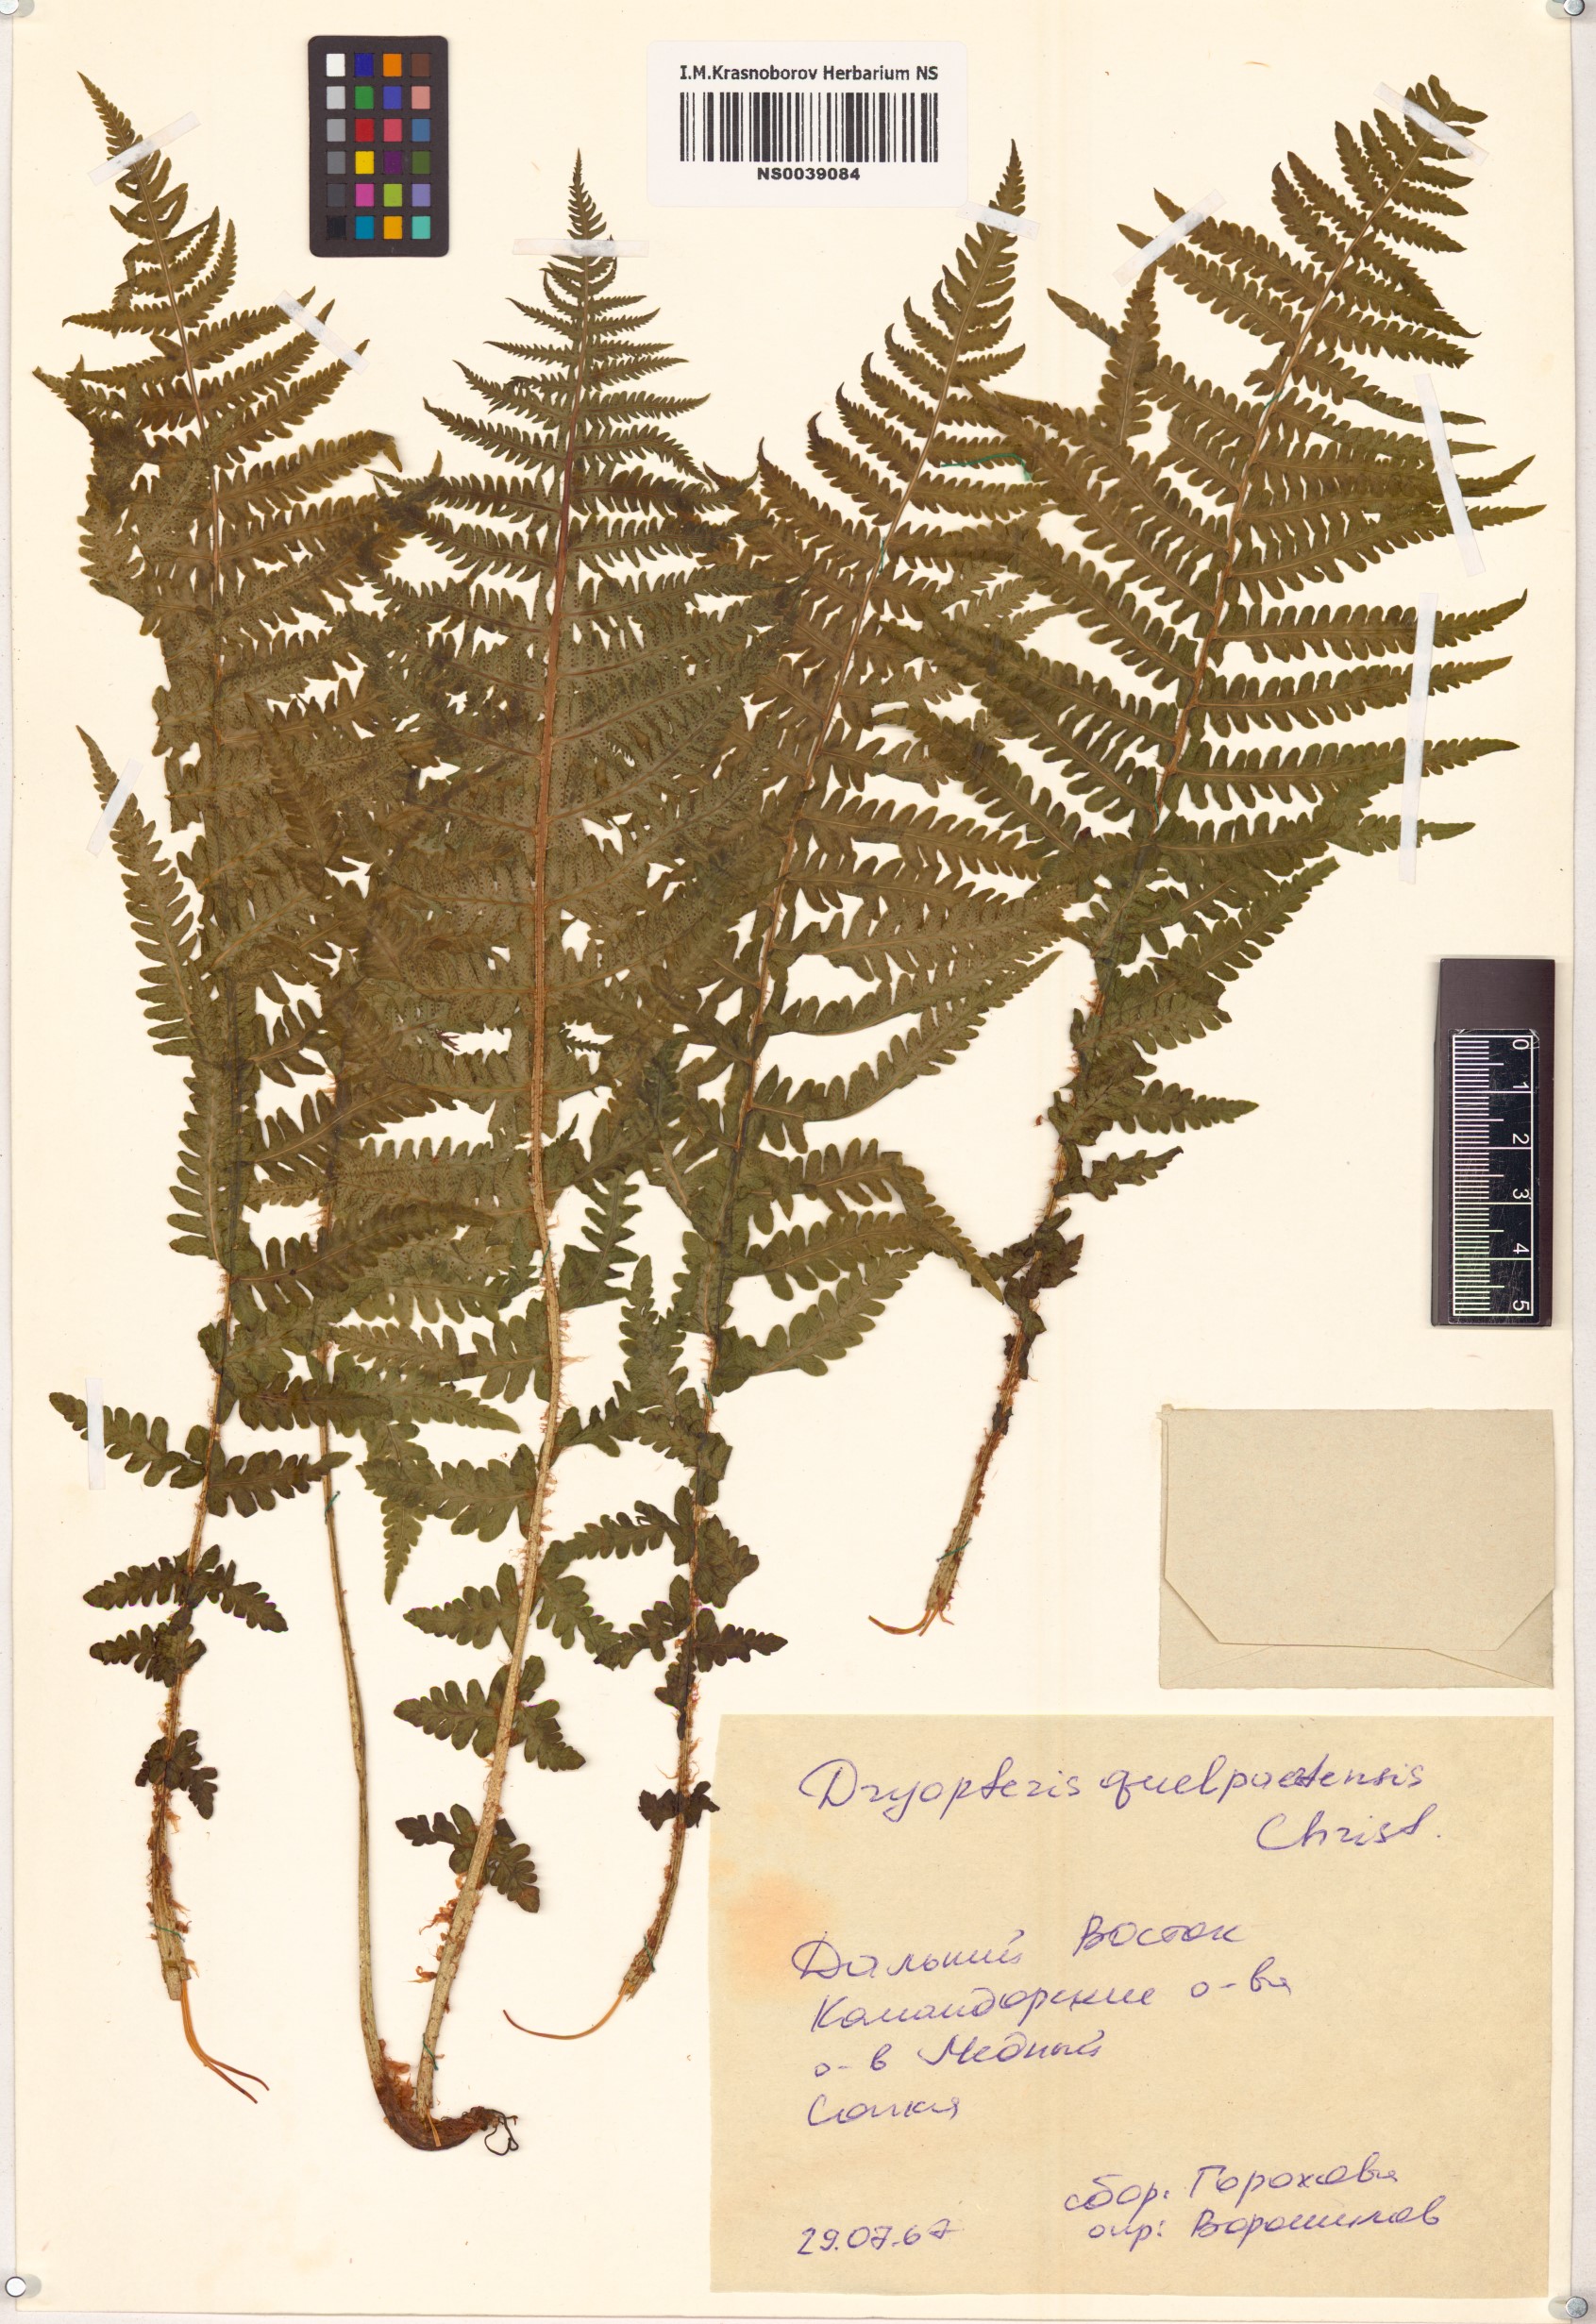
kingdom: Plantae
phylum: Tracheophyta
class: Polypodiopsida
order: Polypodiales
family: Thelypteridaceae
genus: Oreopteris
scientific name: Oreopteris quelpartensis
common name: Mountain fern
